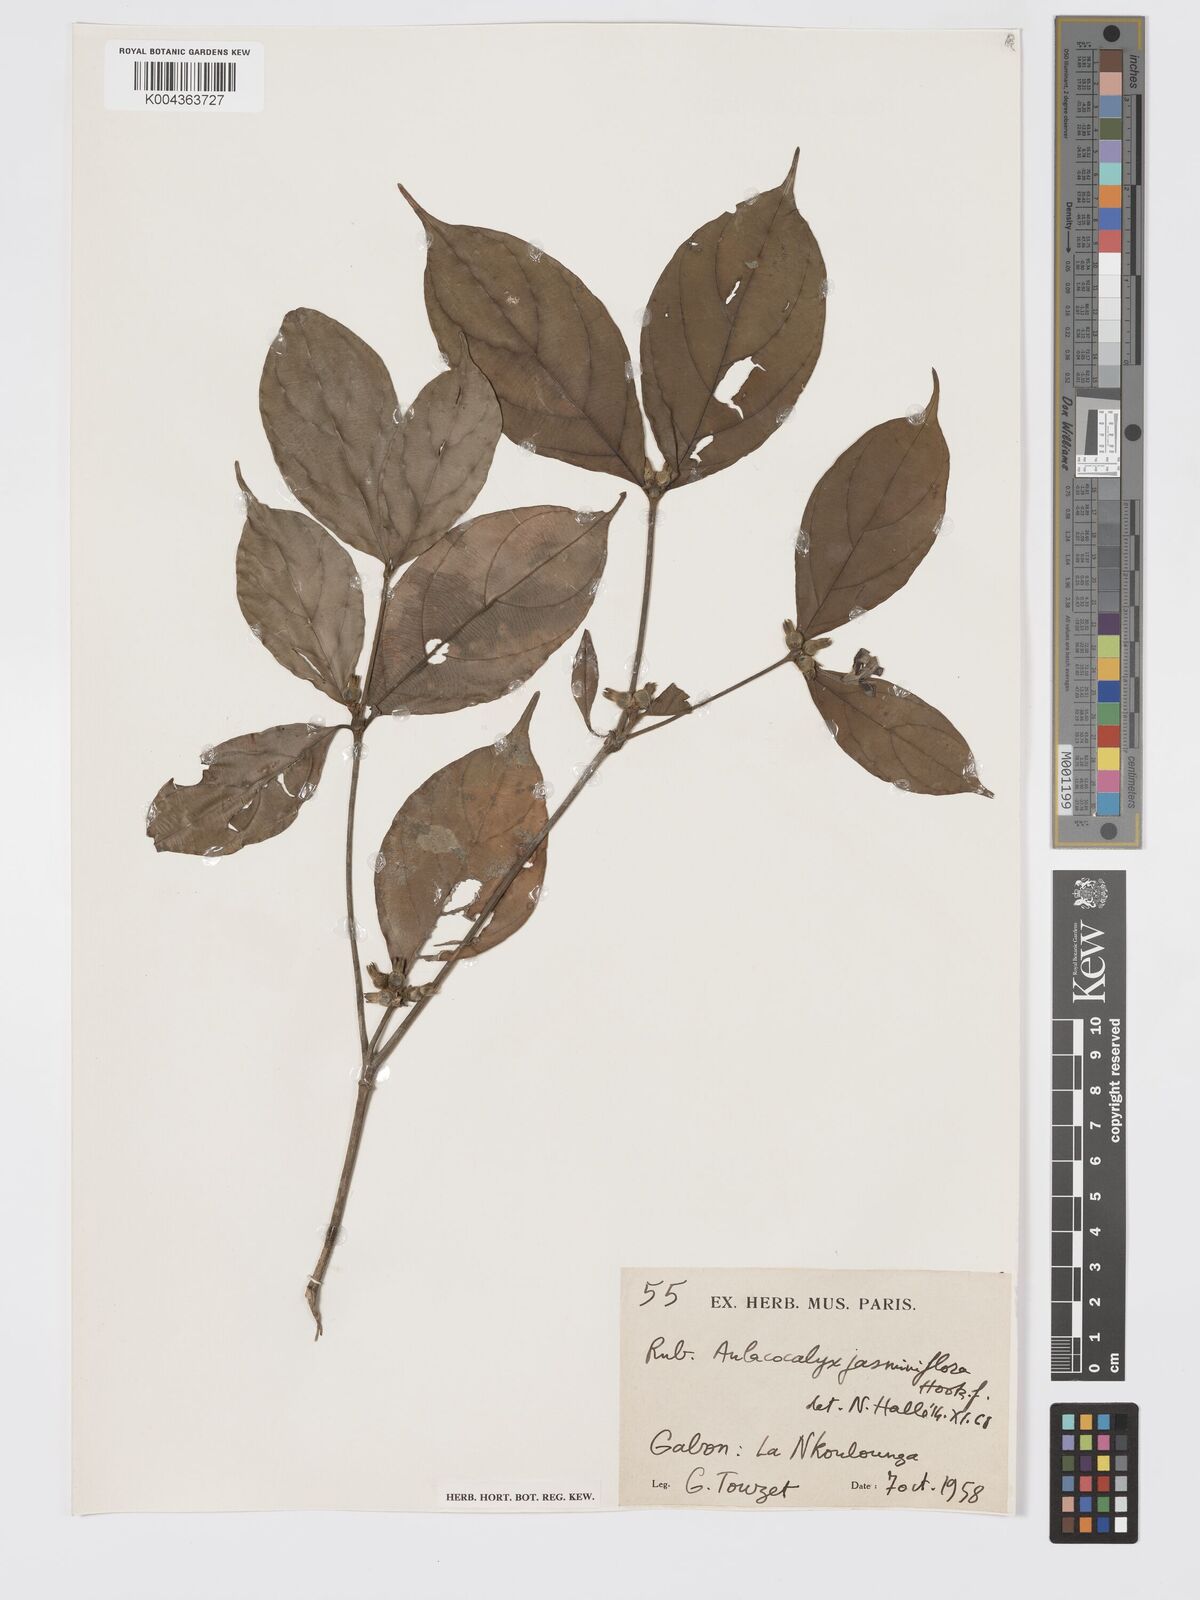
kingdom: Plantae
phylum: Tracheophyta
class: Magnoliopsida
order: Gentianales
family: Rubiaceae
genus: Aulacocalyx
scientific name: Aulacocalyx jasminiflora
